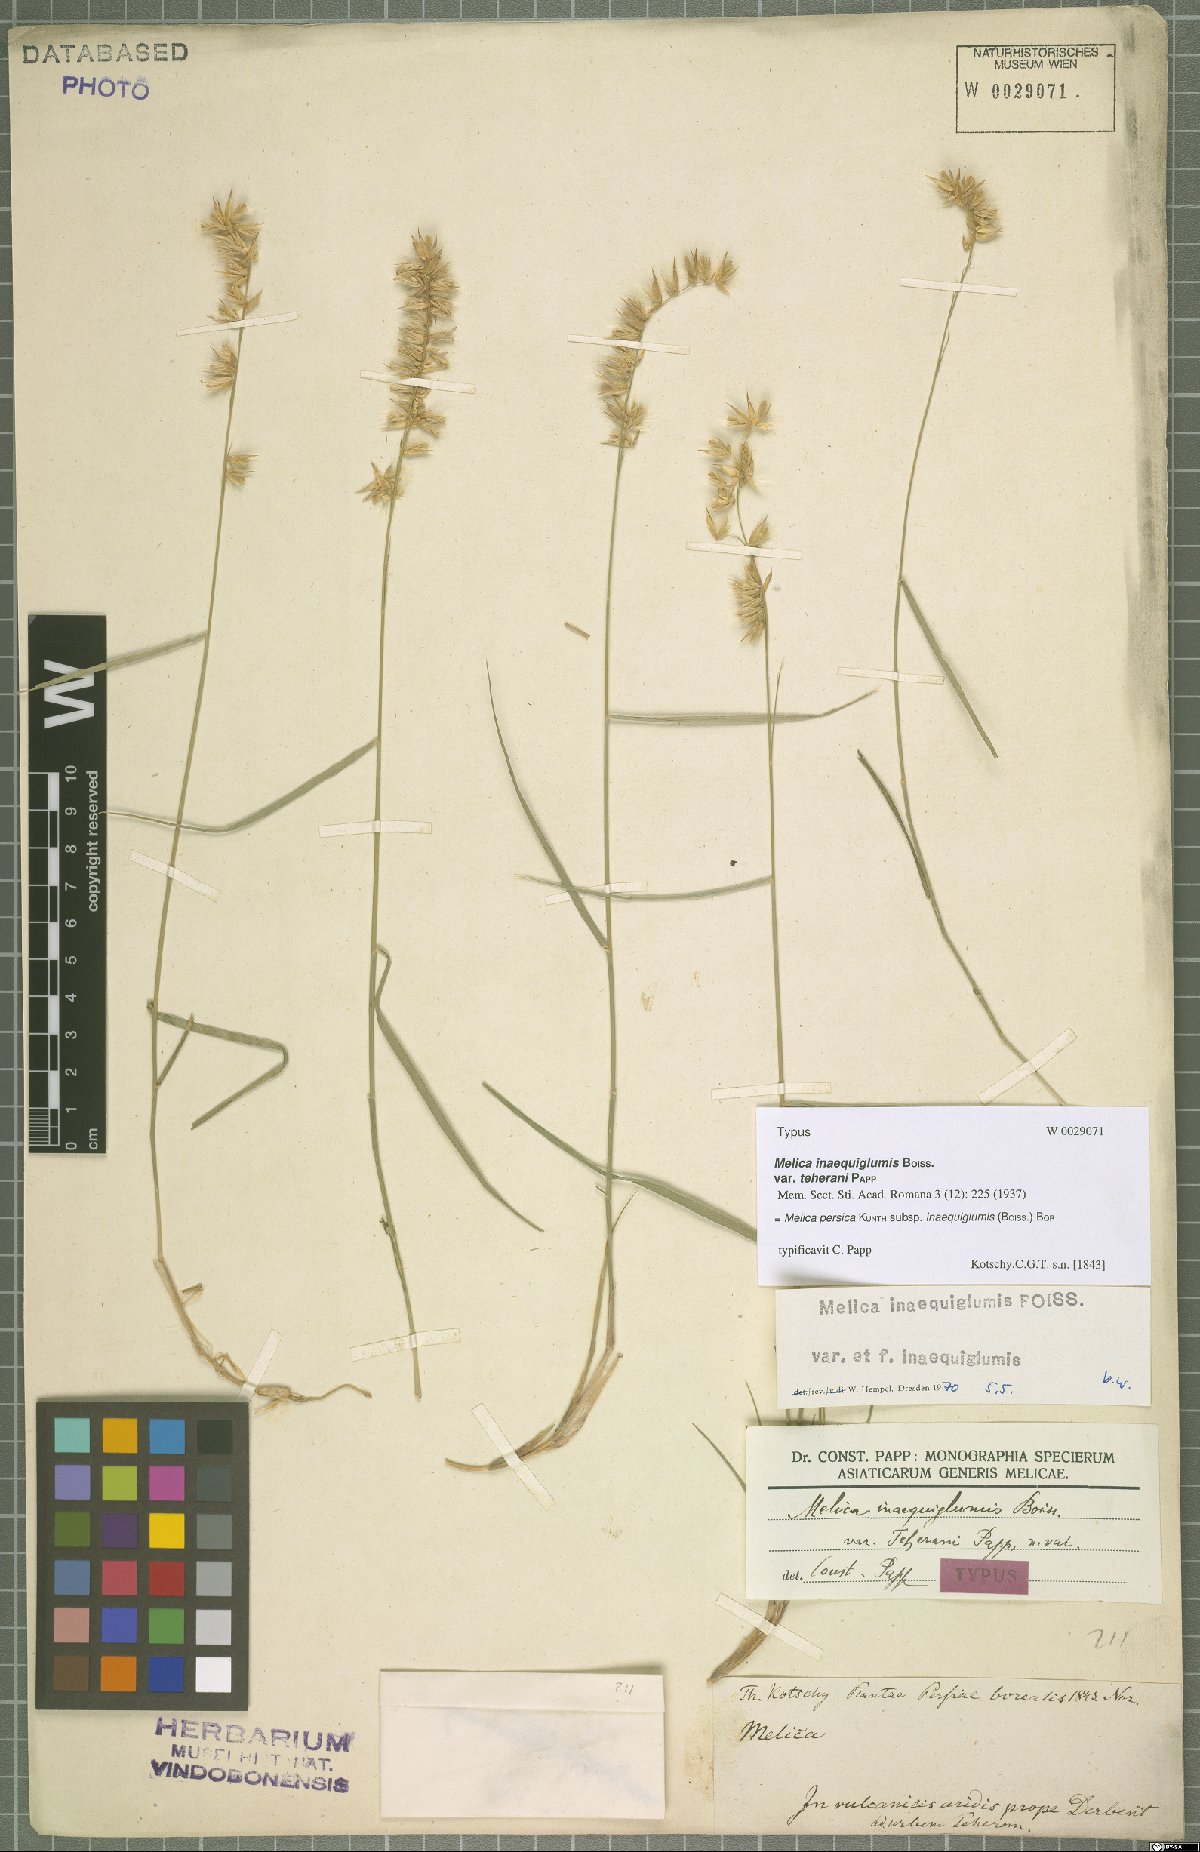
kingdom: Plantae
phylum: Tracheophyta
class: Liliopsida
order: Poales
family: Poaceae
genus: Melica
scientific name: Melica persica
